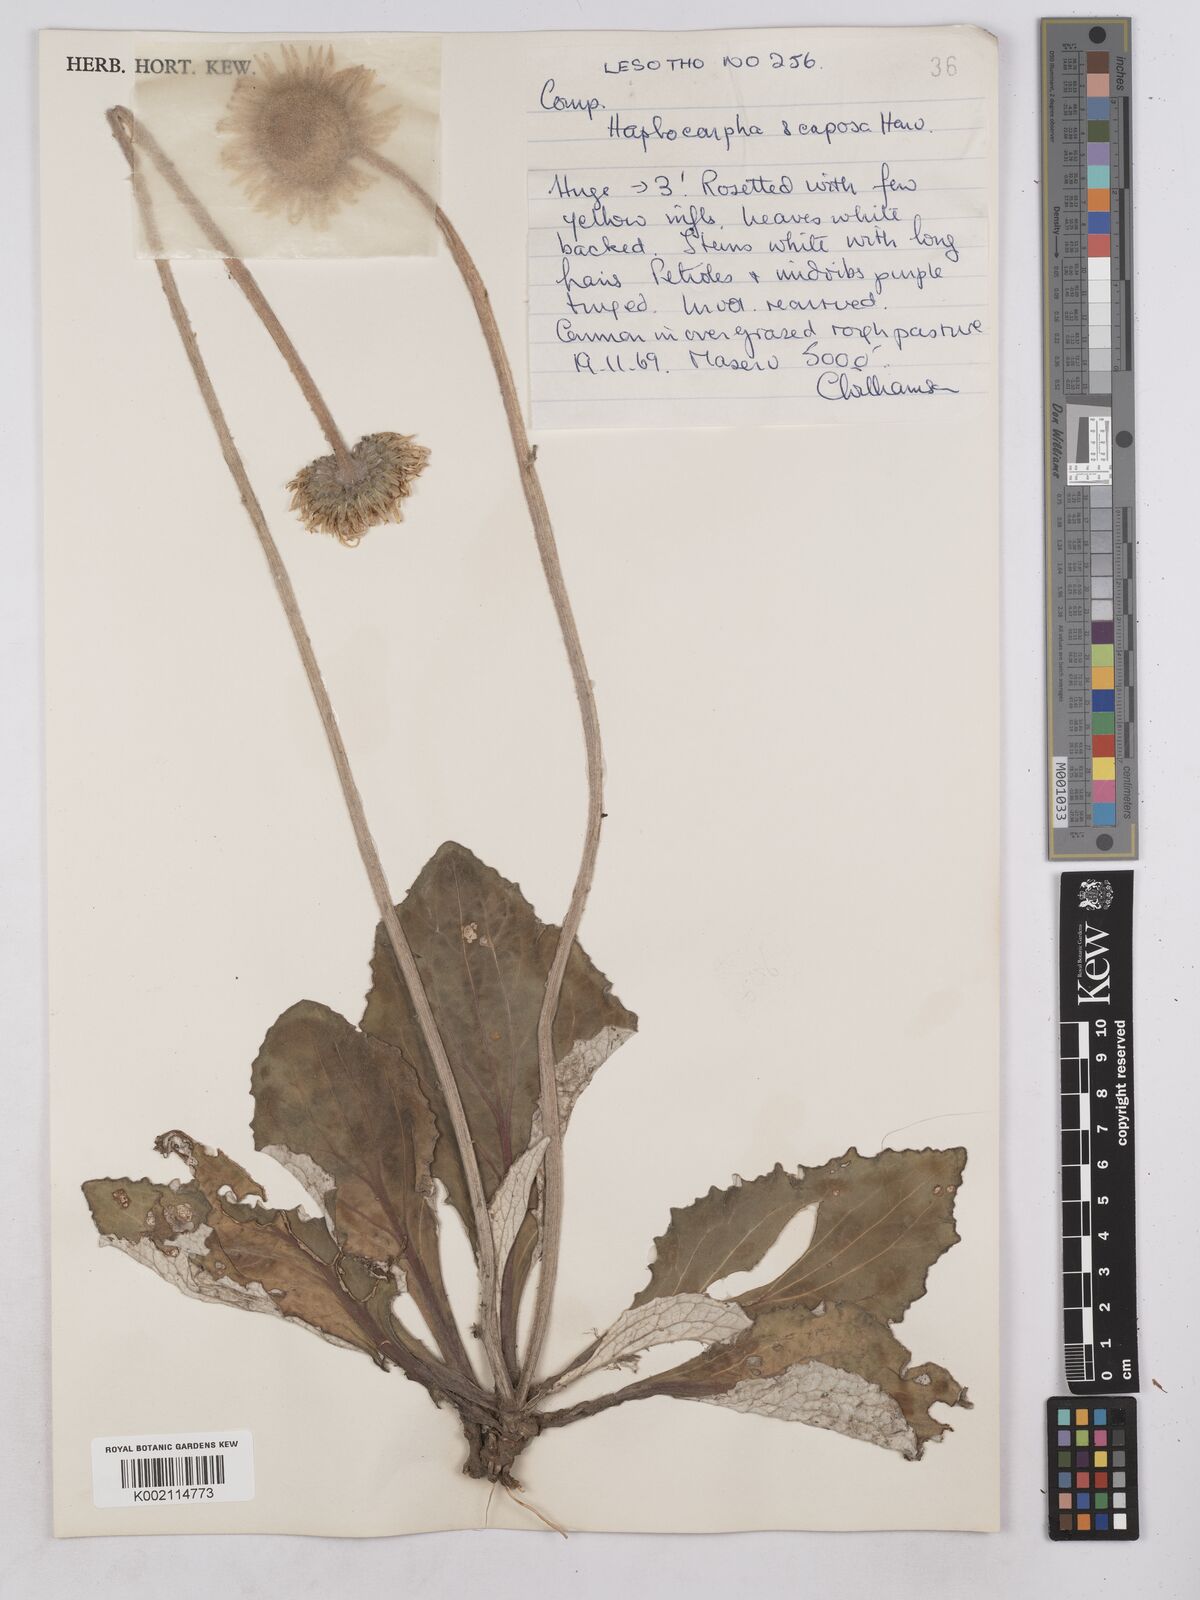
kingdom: Plantae
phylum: Tracheophyta
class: Magnoliopsida
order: Asterales
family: Asteraceae
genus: Haplocarpha
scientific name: Haplocarpha scaposa
